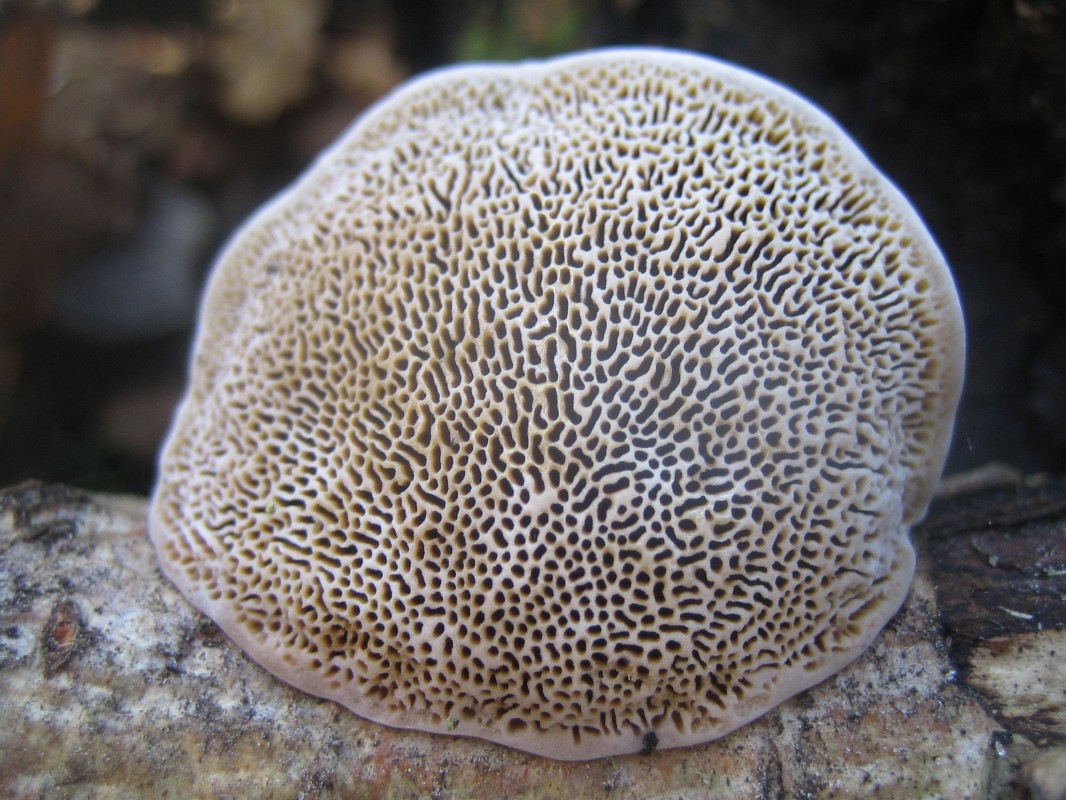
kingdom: Fungi
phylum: Basidiomycota
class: Agaricomycetes
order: Polyporales
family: Polyporaceae
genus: Daedaleopsis
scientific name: Daedaleopsis confragosa
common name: rødmende læderporesvamp
